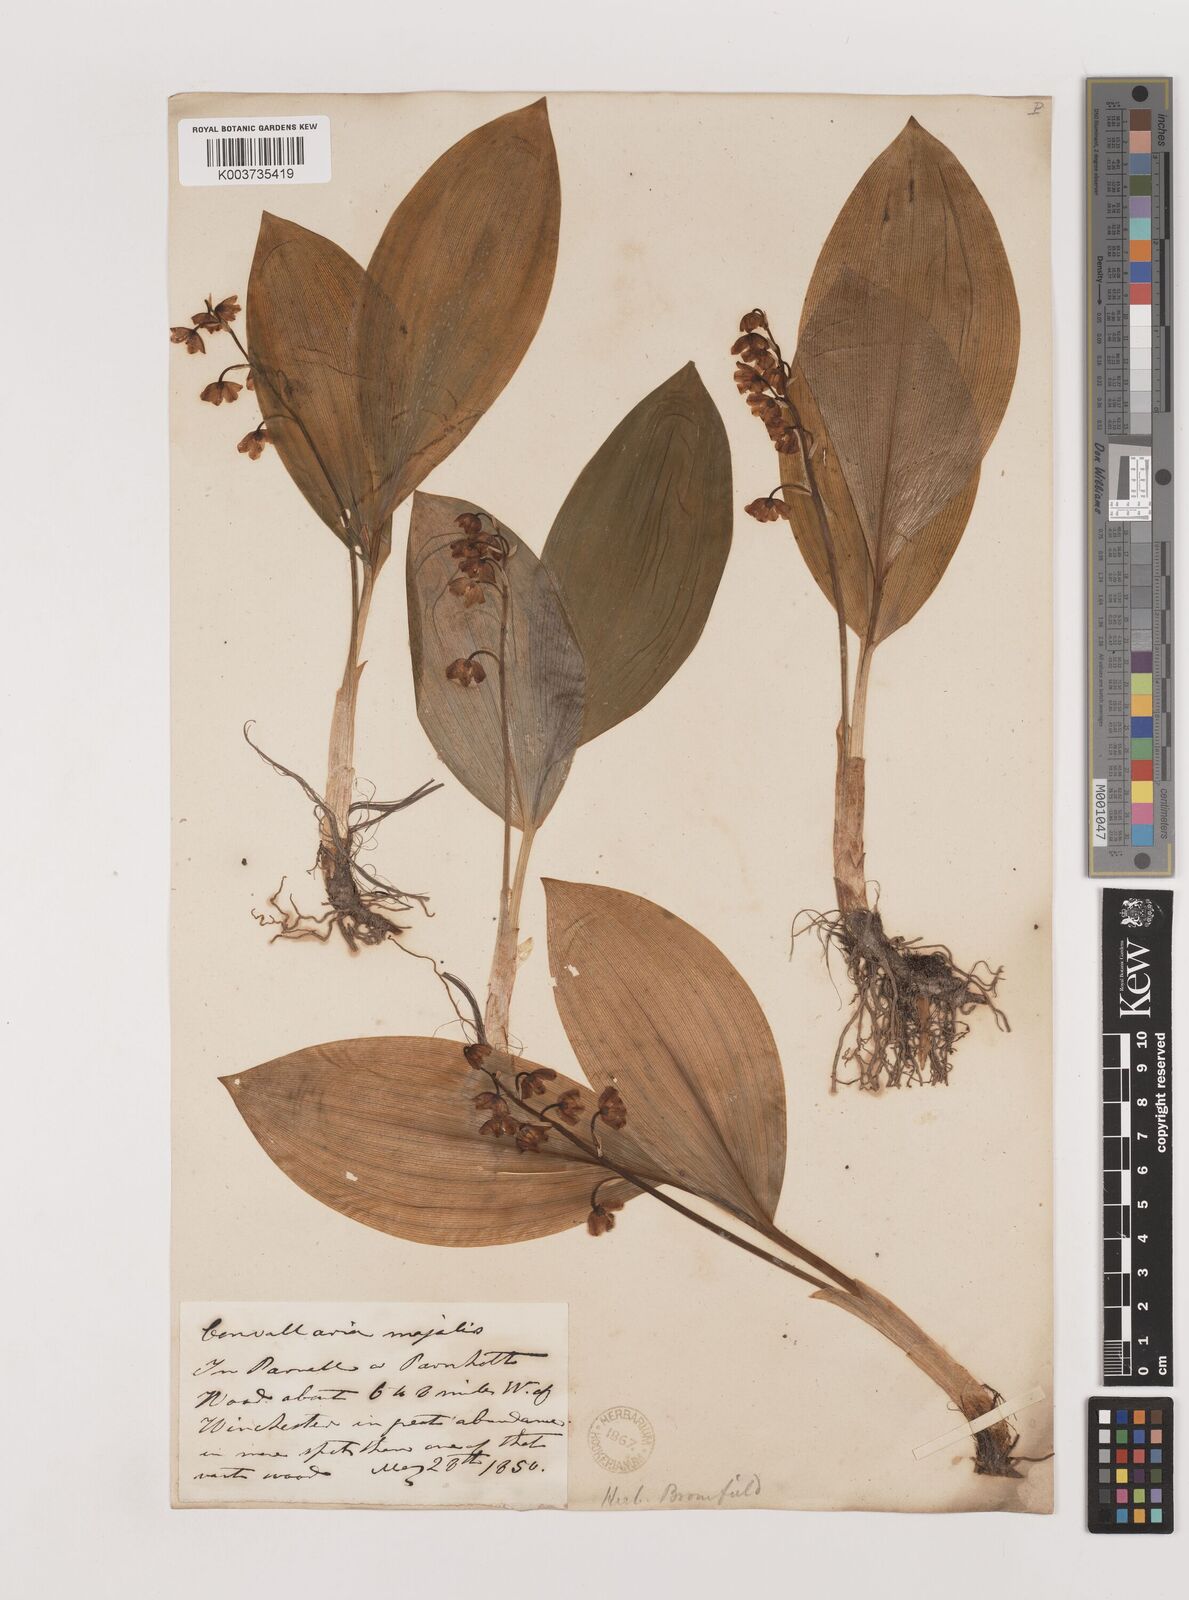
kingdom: Plantae
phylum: Tracheophyta
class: Liliopsida
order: Asparagales
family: Asparagaceae
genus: Convallaria
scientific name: Convallaria majalis
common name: Lily-of-the-valley
